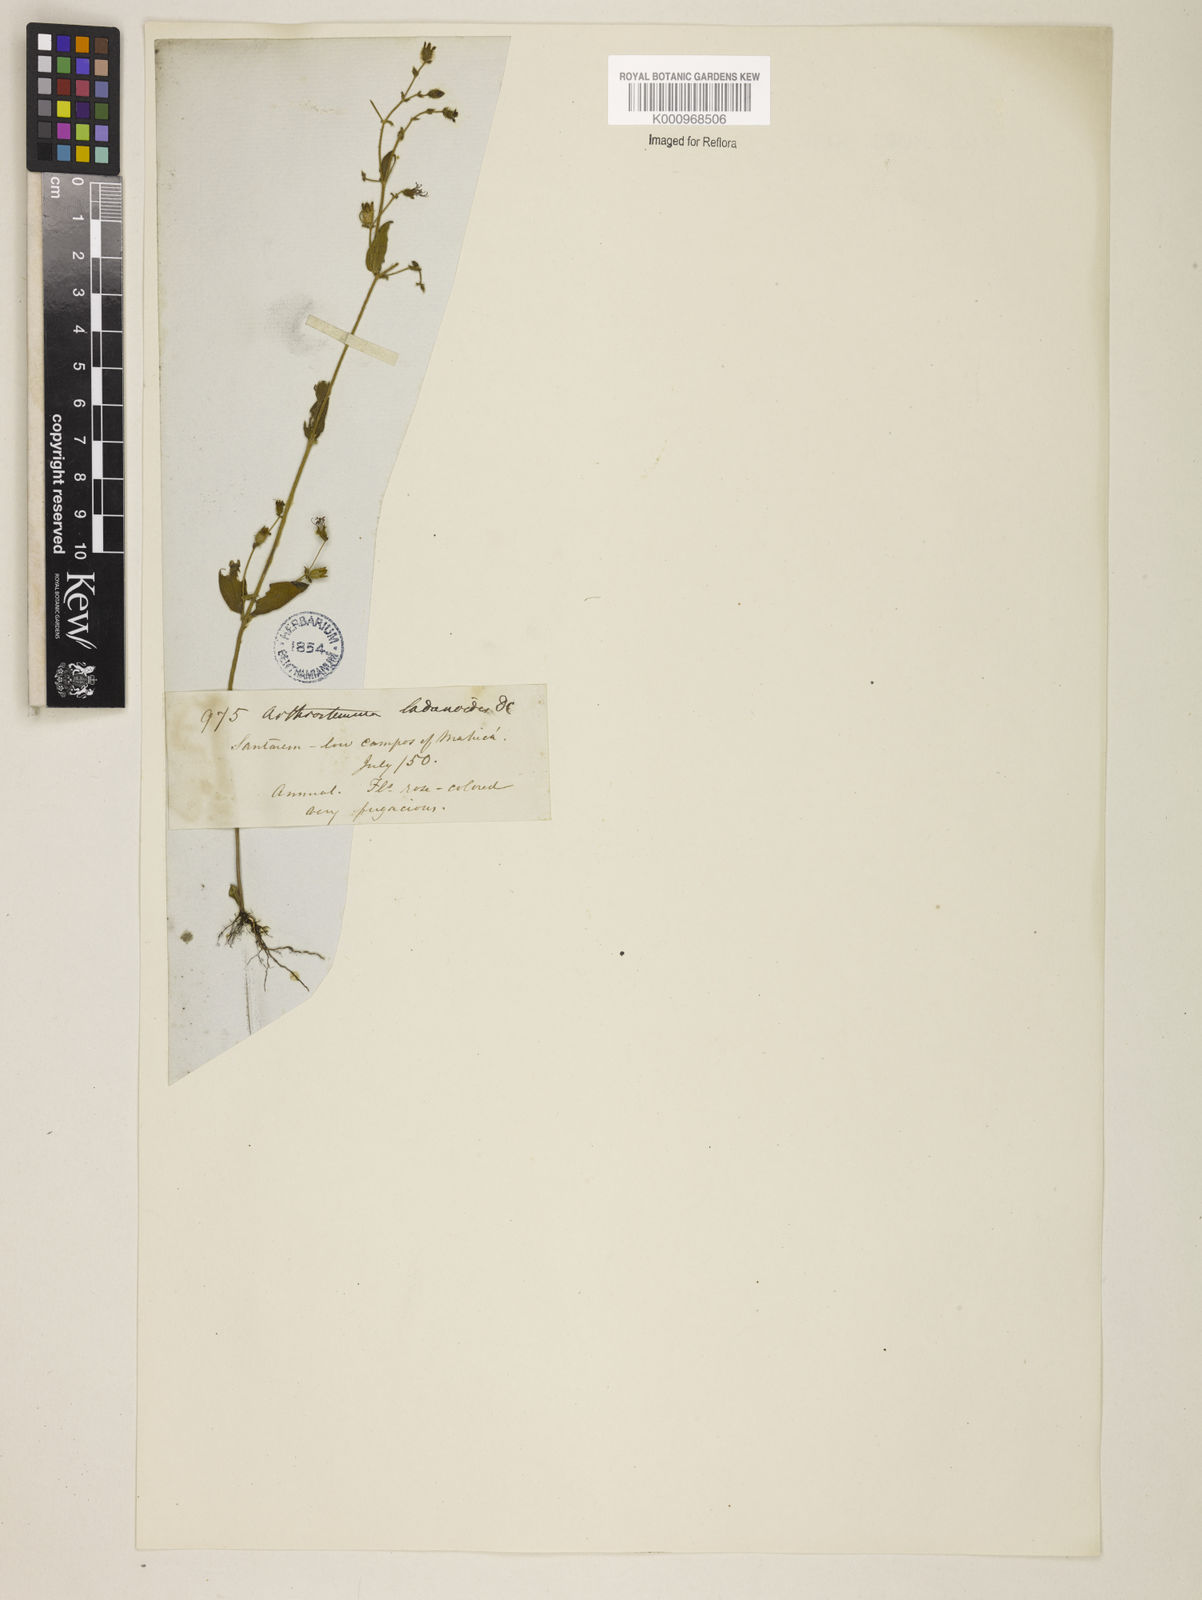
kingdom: Plantae
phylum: Tracheophyta
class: Magnoliopsida
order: Myrtales
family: Melastomataceae
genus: Pterolepis
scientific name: Pterolepis trichotoma
